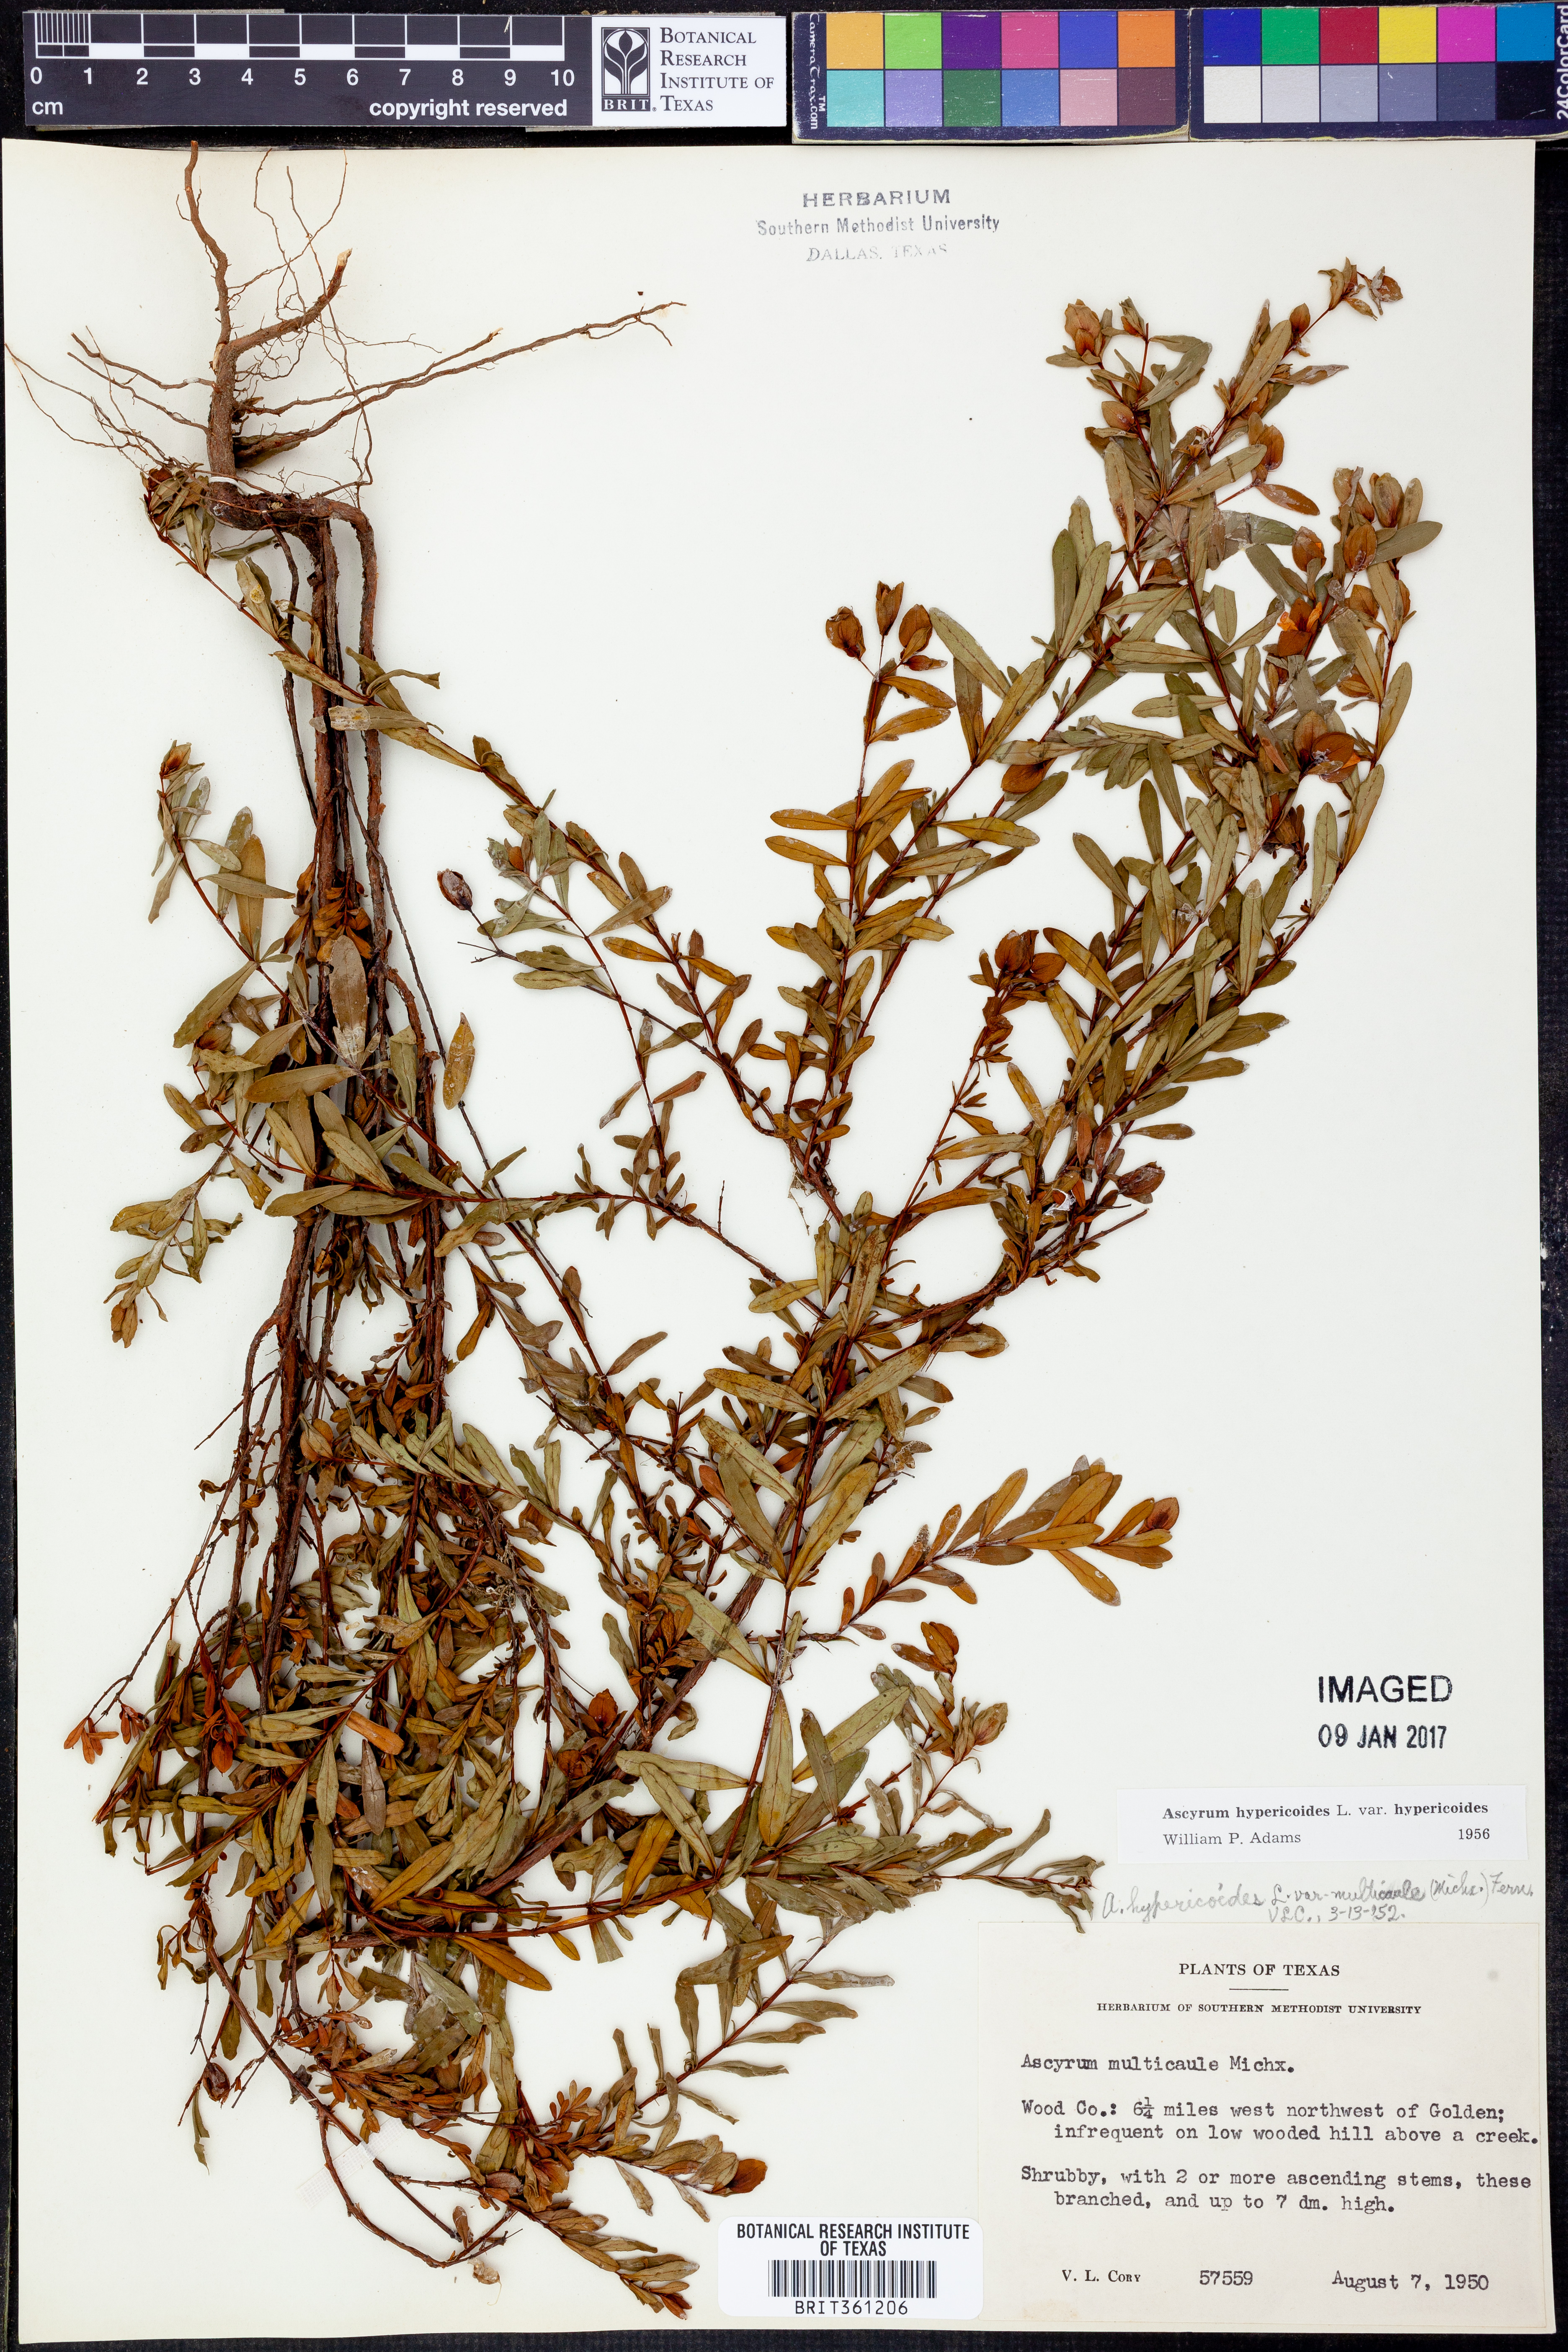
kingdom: Plantae
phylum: Tracheophyta
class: Magnoliopsida
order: Malpighiales
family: Hypericaceae
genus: Hypericum
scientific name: Hypericum hypericoides
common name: St. andrew's cross
